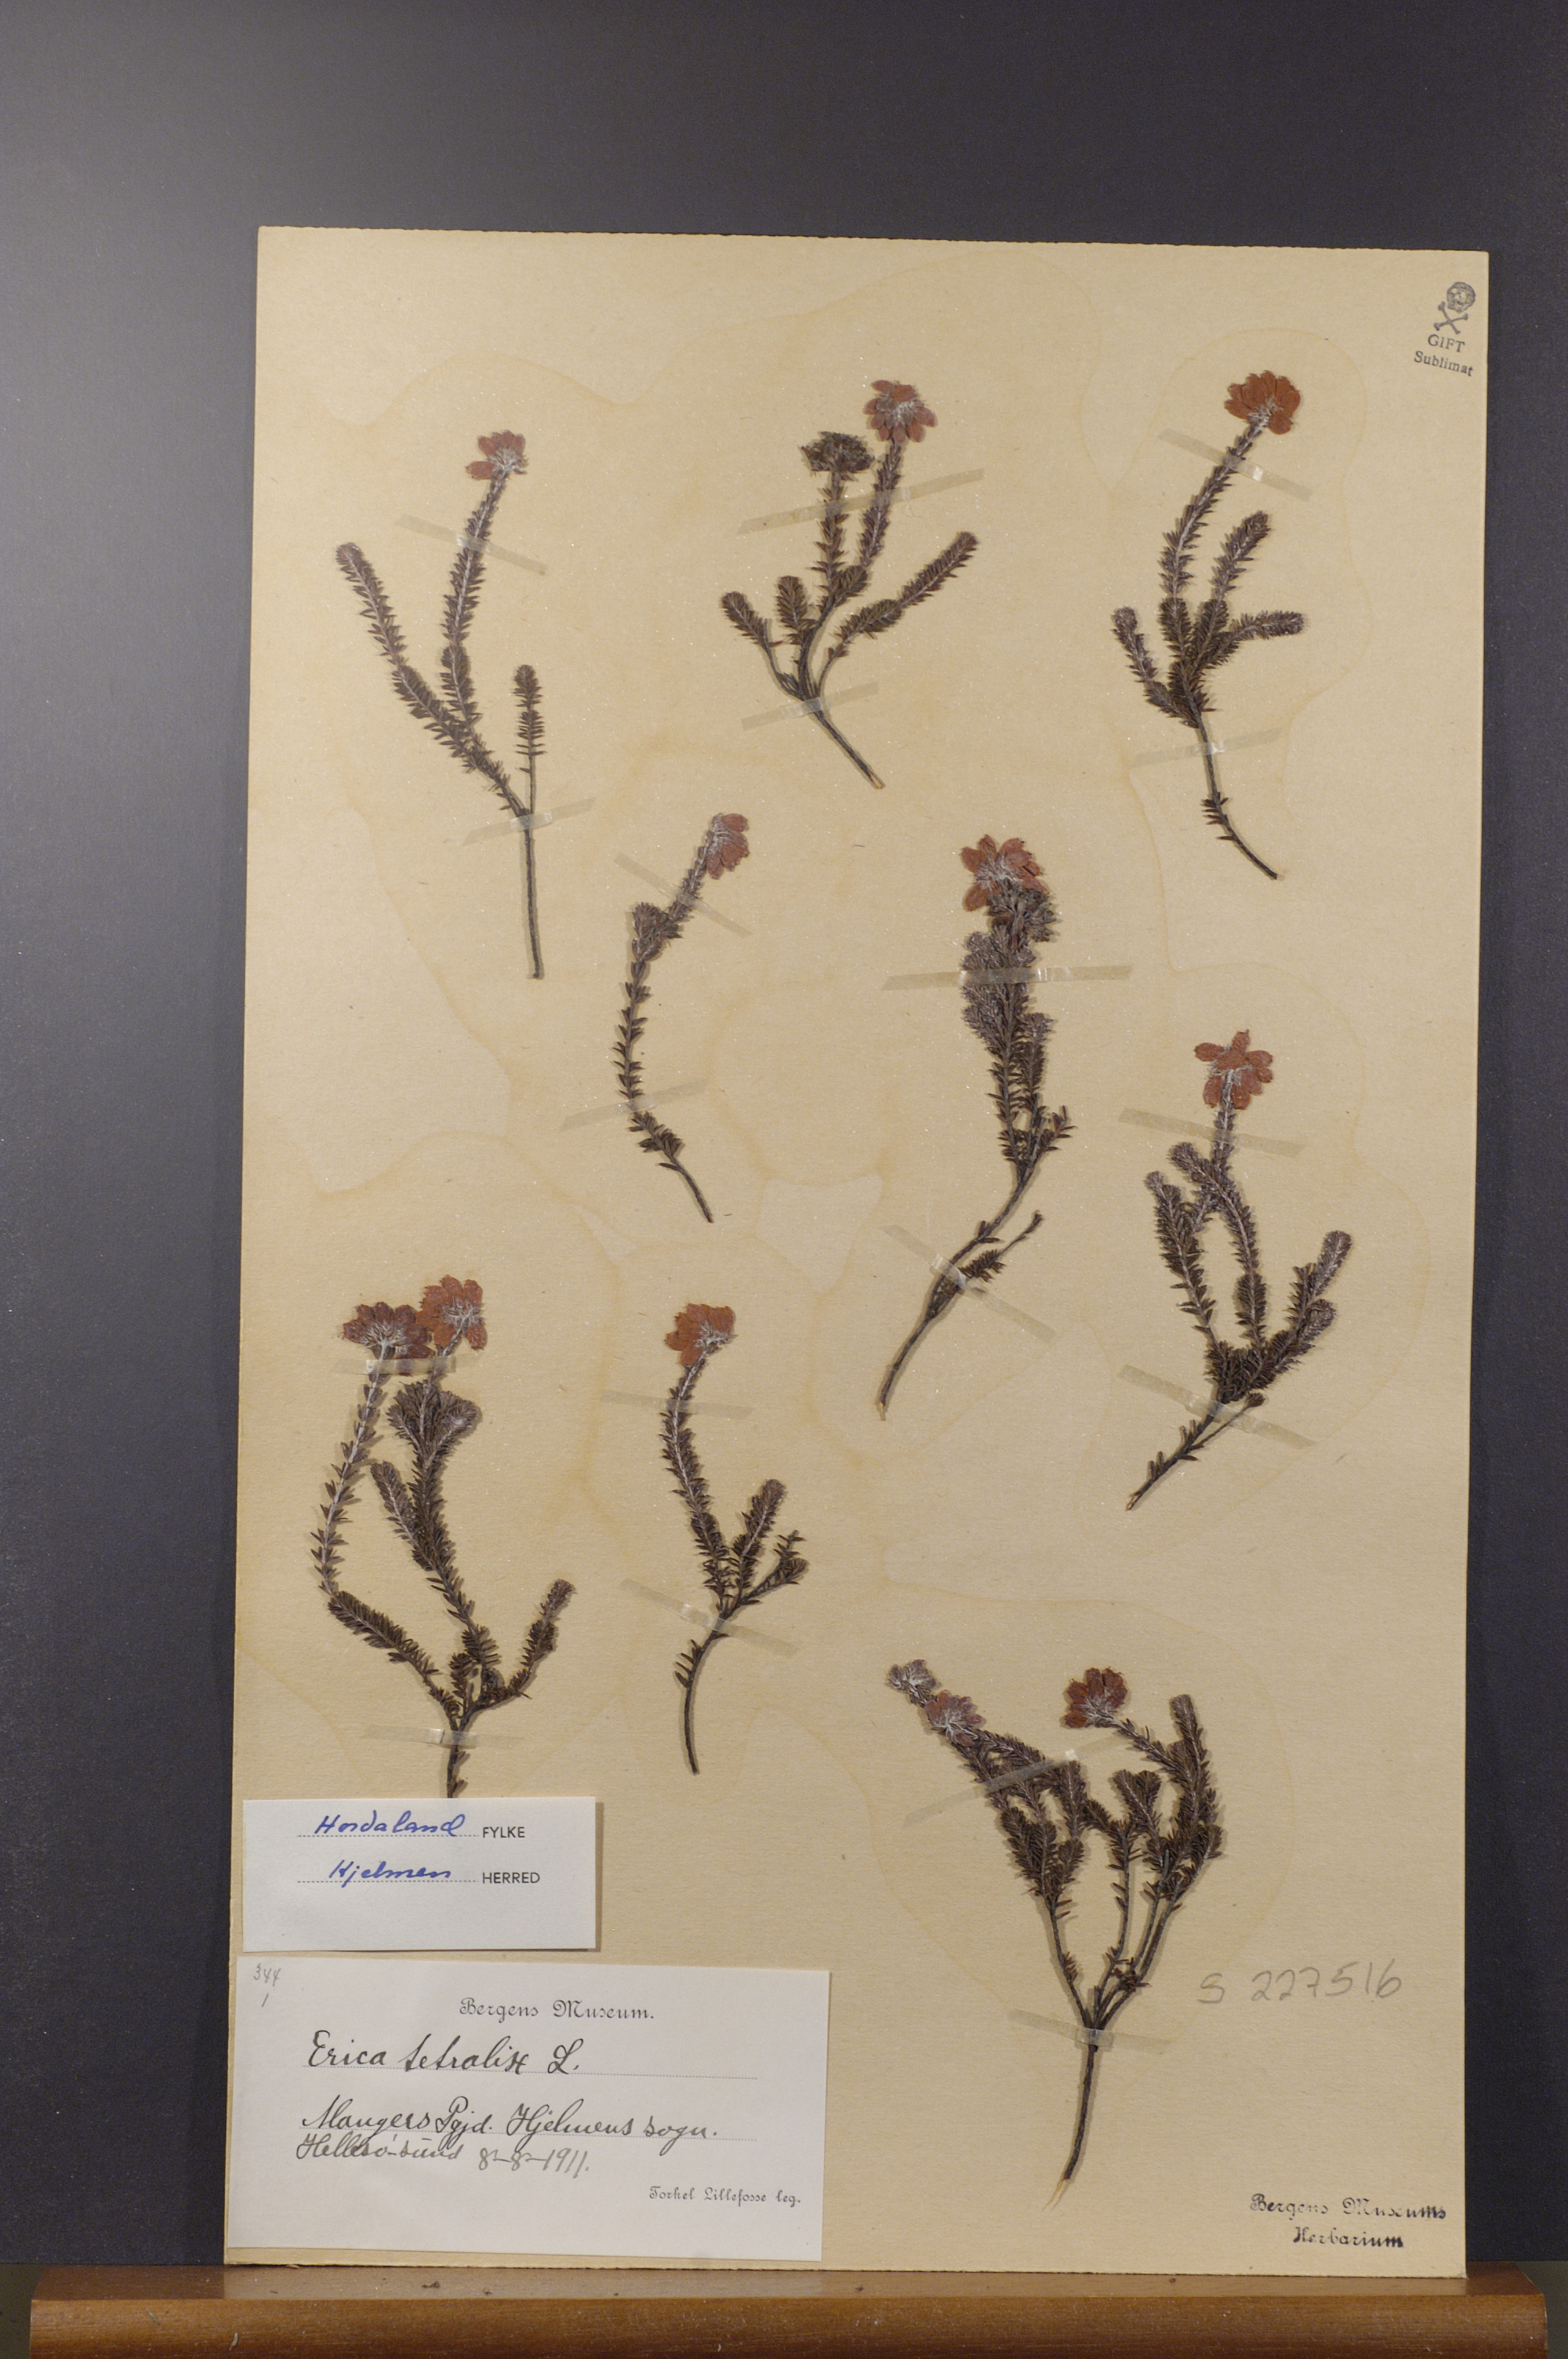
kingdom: Plantae
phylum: Tracheophyta
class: Magnoliopsida
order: Ericales
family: Ericaceae
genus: Erica
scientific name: Erica tetralix
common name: Cross-leaved heath
